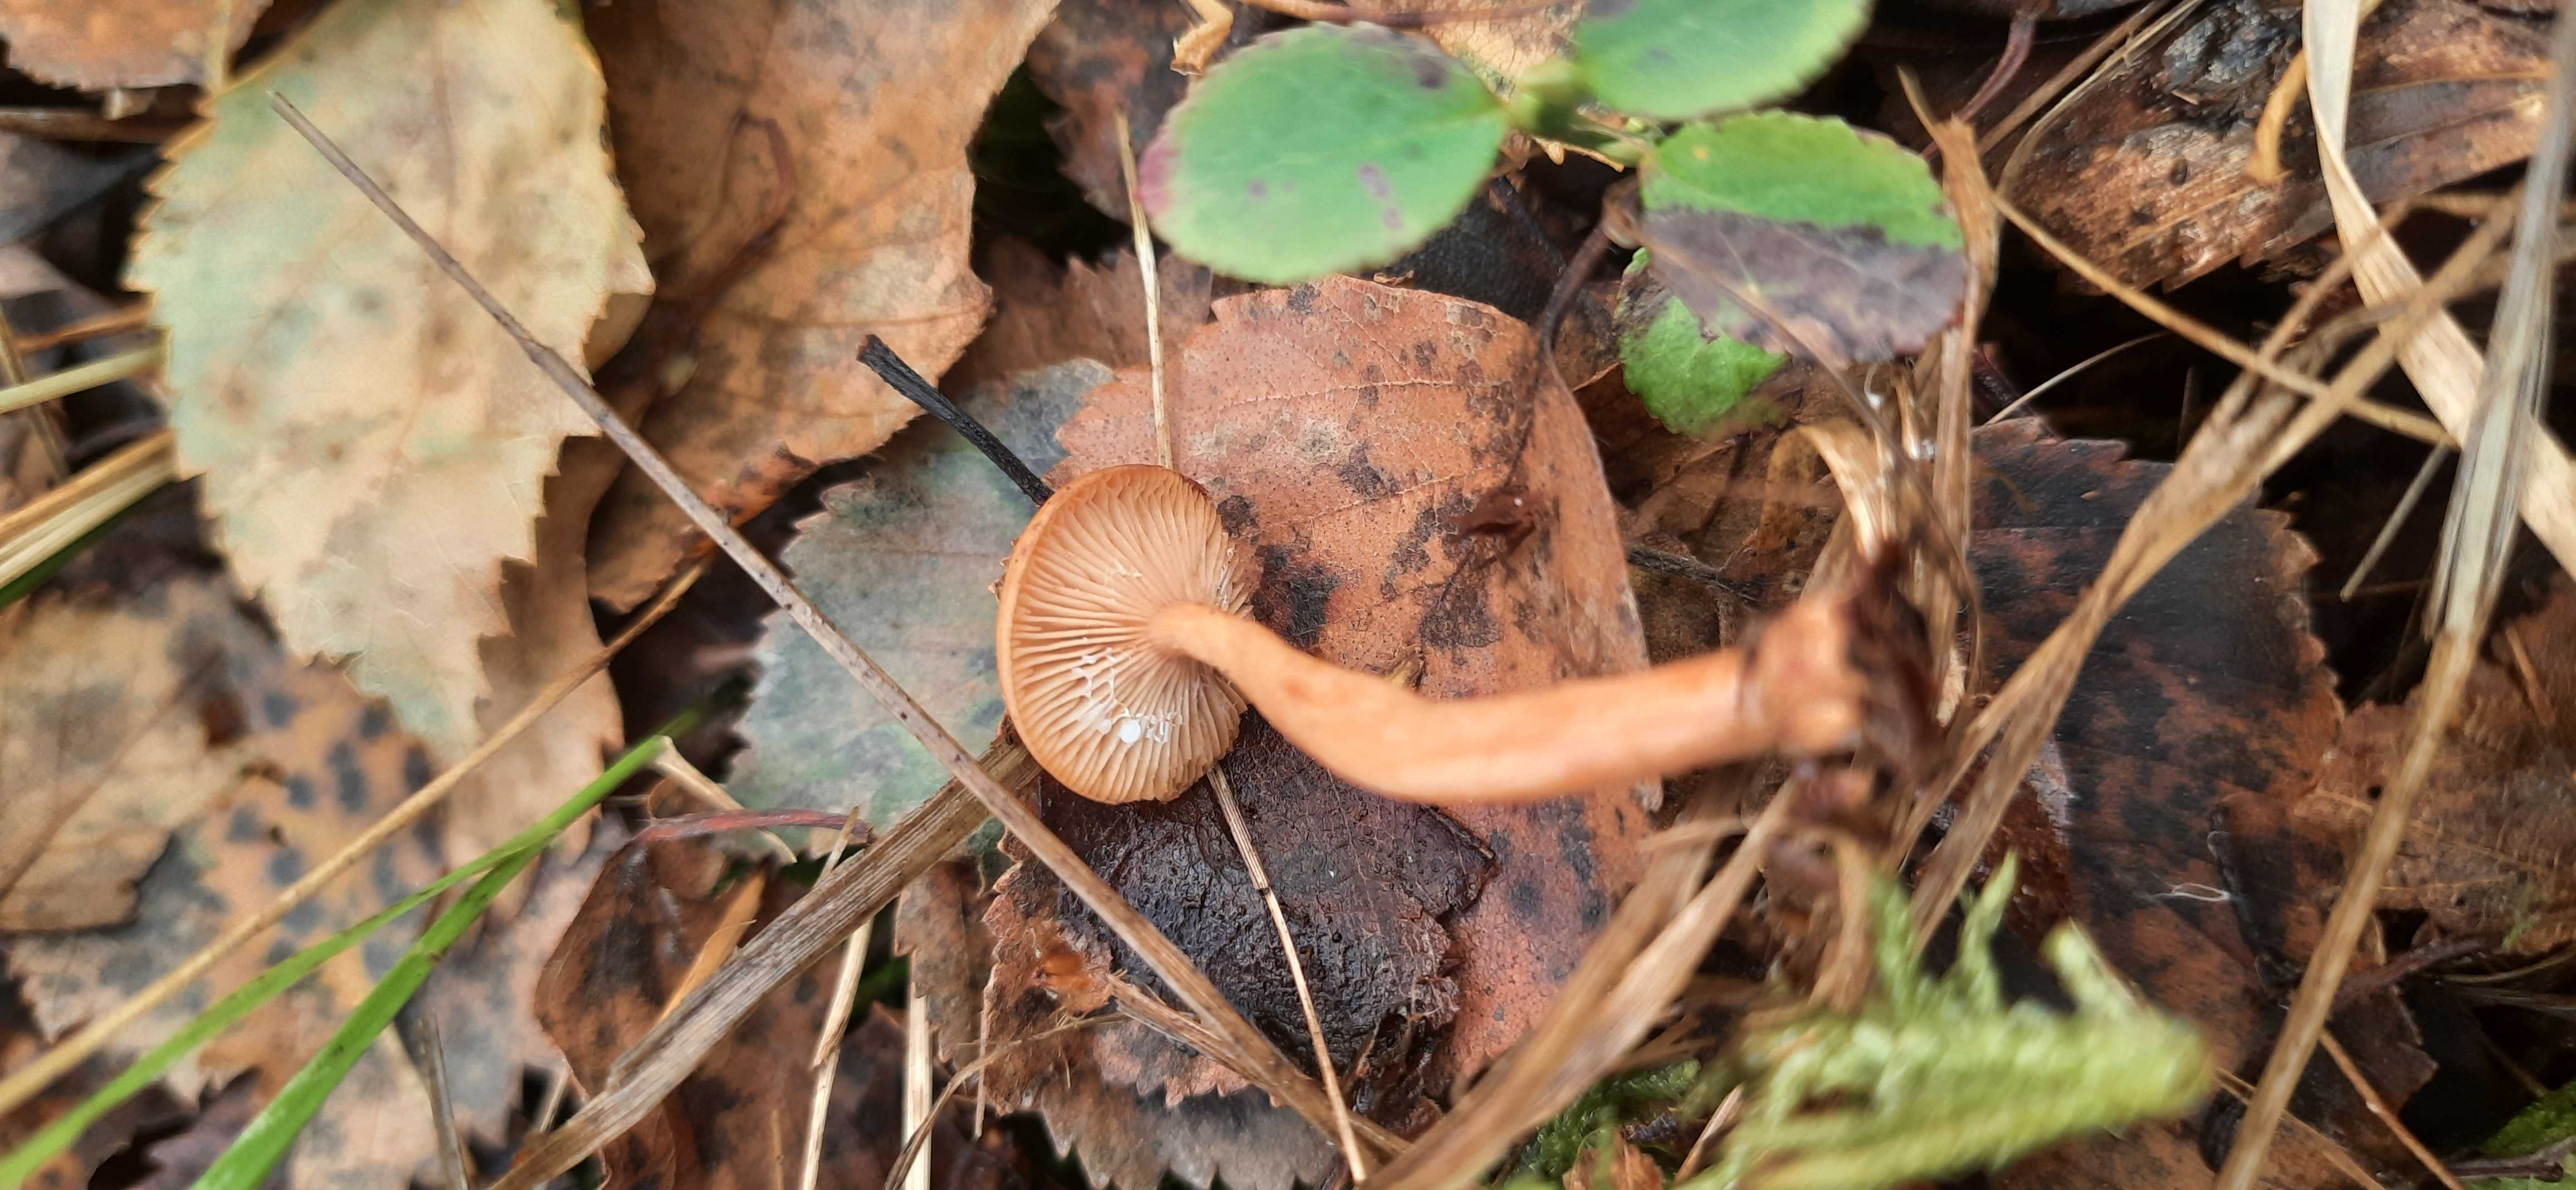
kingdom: Fungi
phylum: Basidiomycota
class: Agaricomycetes
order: Russulales
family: Russulaceae
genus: Lactarius
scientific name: Lactarius tabidus
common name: rynket mælkehat
